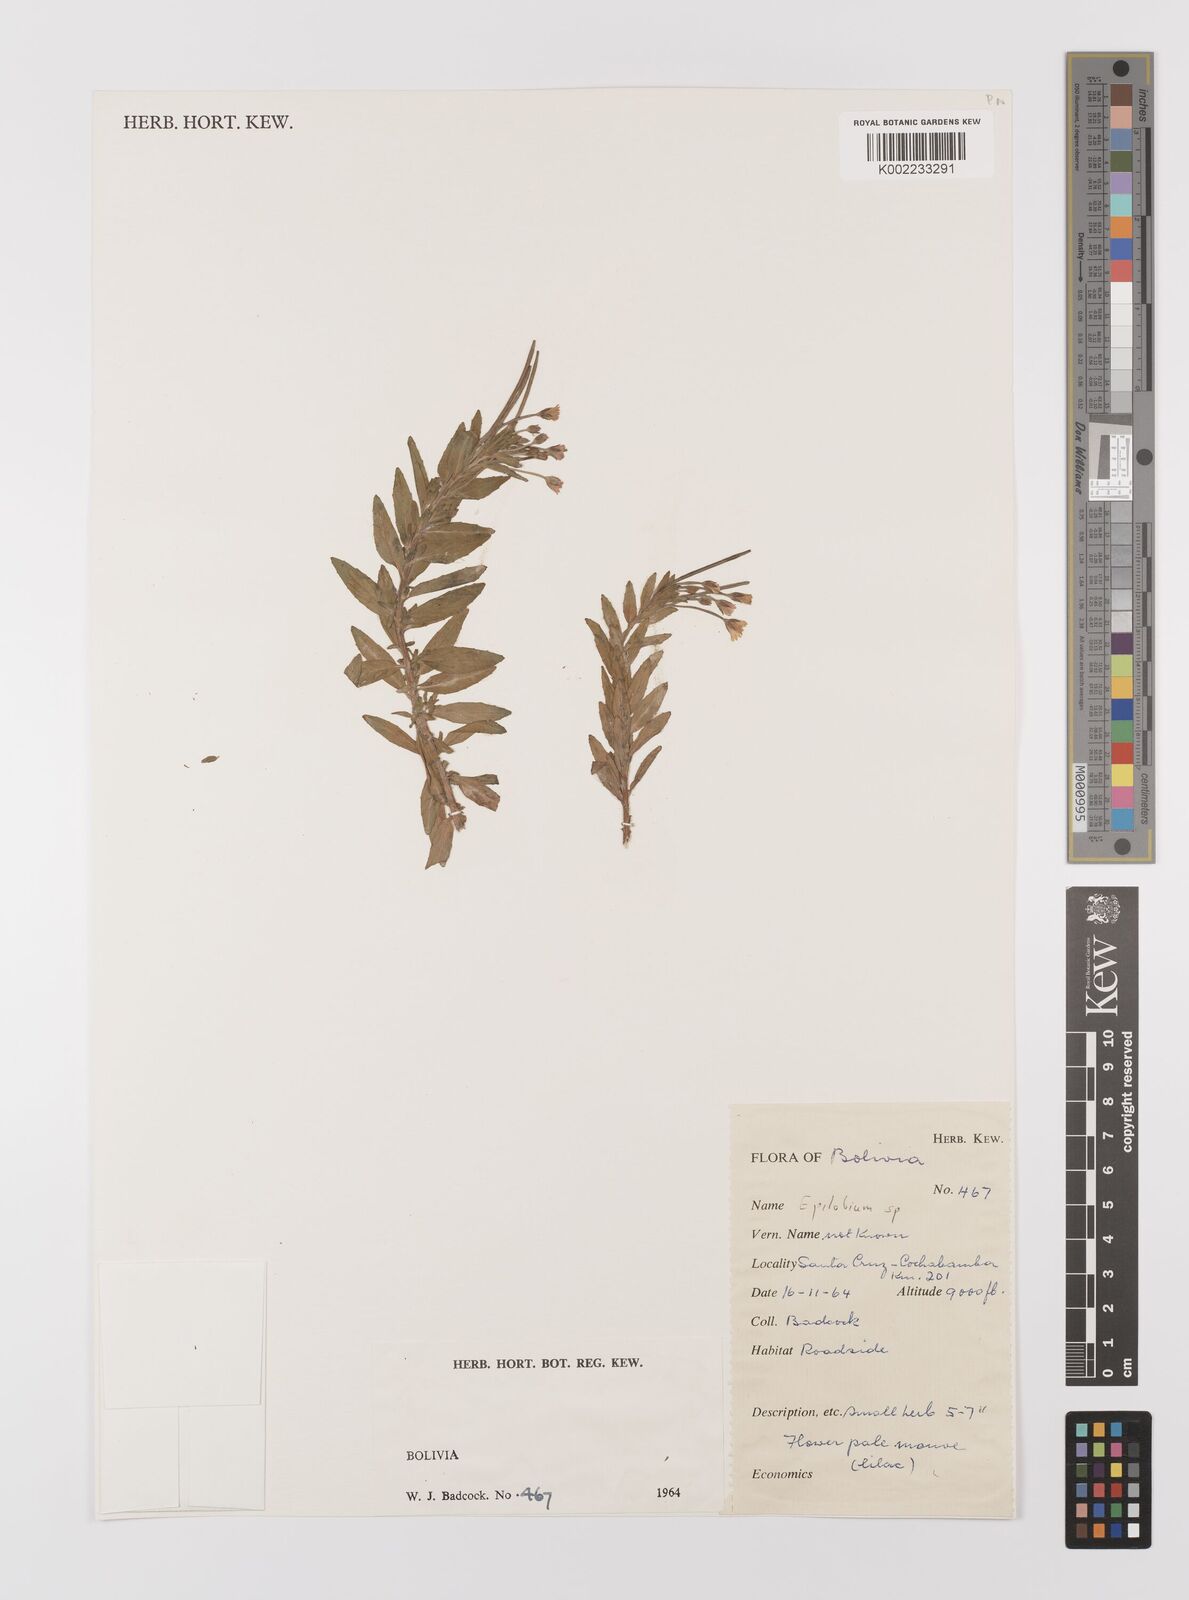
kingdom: Plantae
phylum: Tracheophyta
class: Magnoliopsida
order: Myrtales
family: Onagraceae
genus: Epilobium
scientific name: Epilobium
